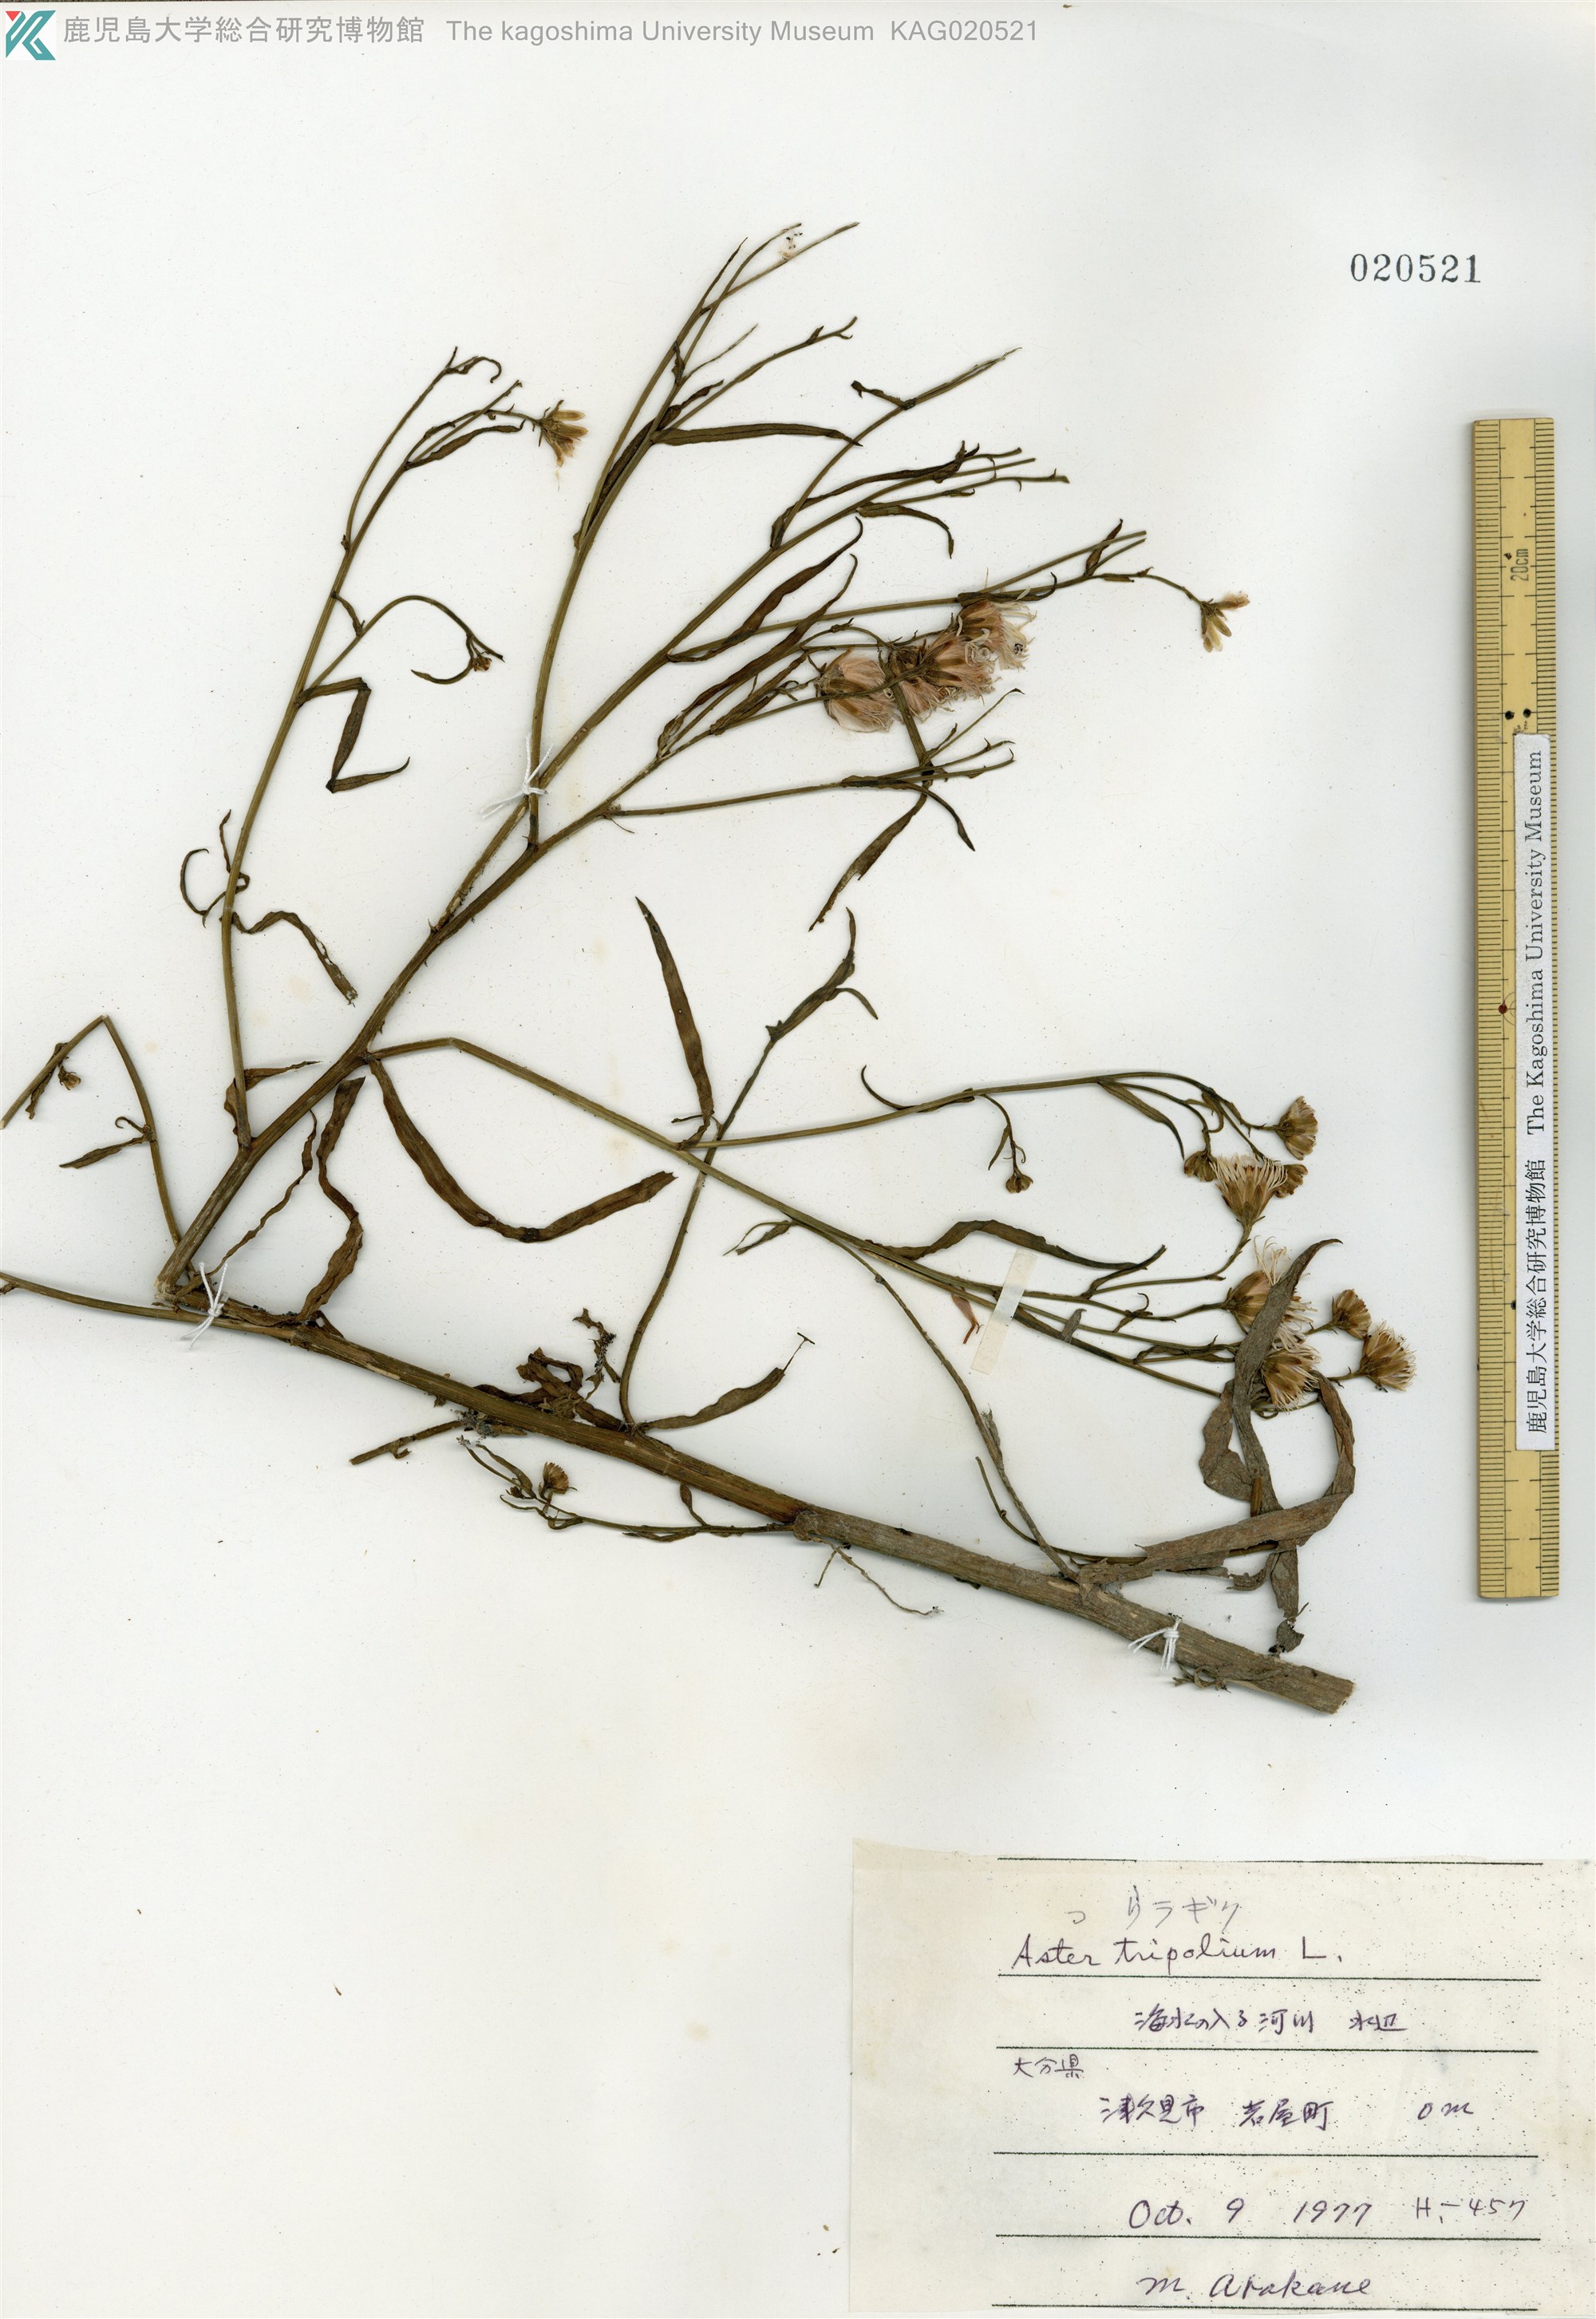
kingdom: Plantae
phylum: Tracheophyta
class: Magnoliopsida
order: Asterales
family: Asteraceae
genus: Tripolium
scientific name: Tripolium pannonicum
